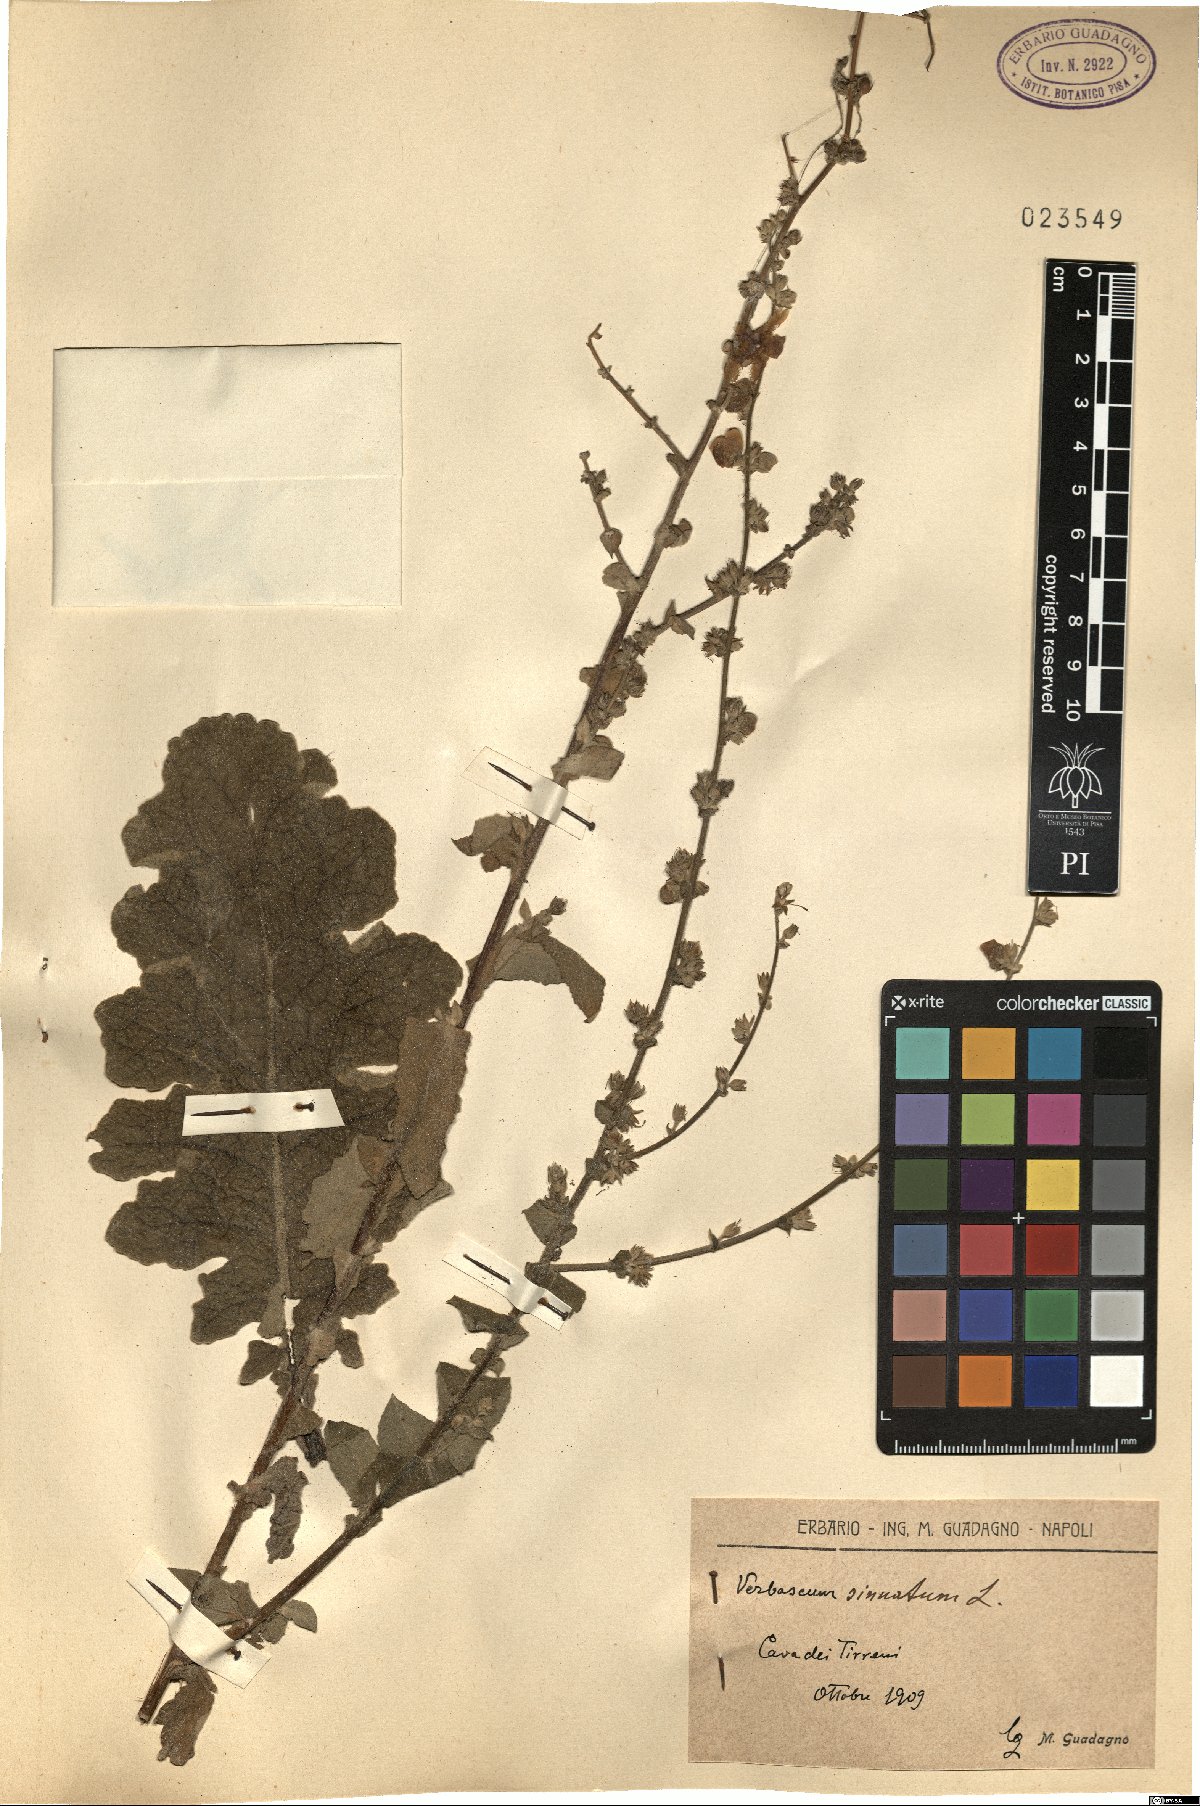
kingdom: Plantae
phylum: Tracheophyta
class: Magnoliopsida
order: Lamiales
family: Scrophulariaceae
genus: Verbascum
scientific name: Verbascum sinuatum
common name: Wavyleaf mullein
